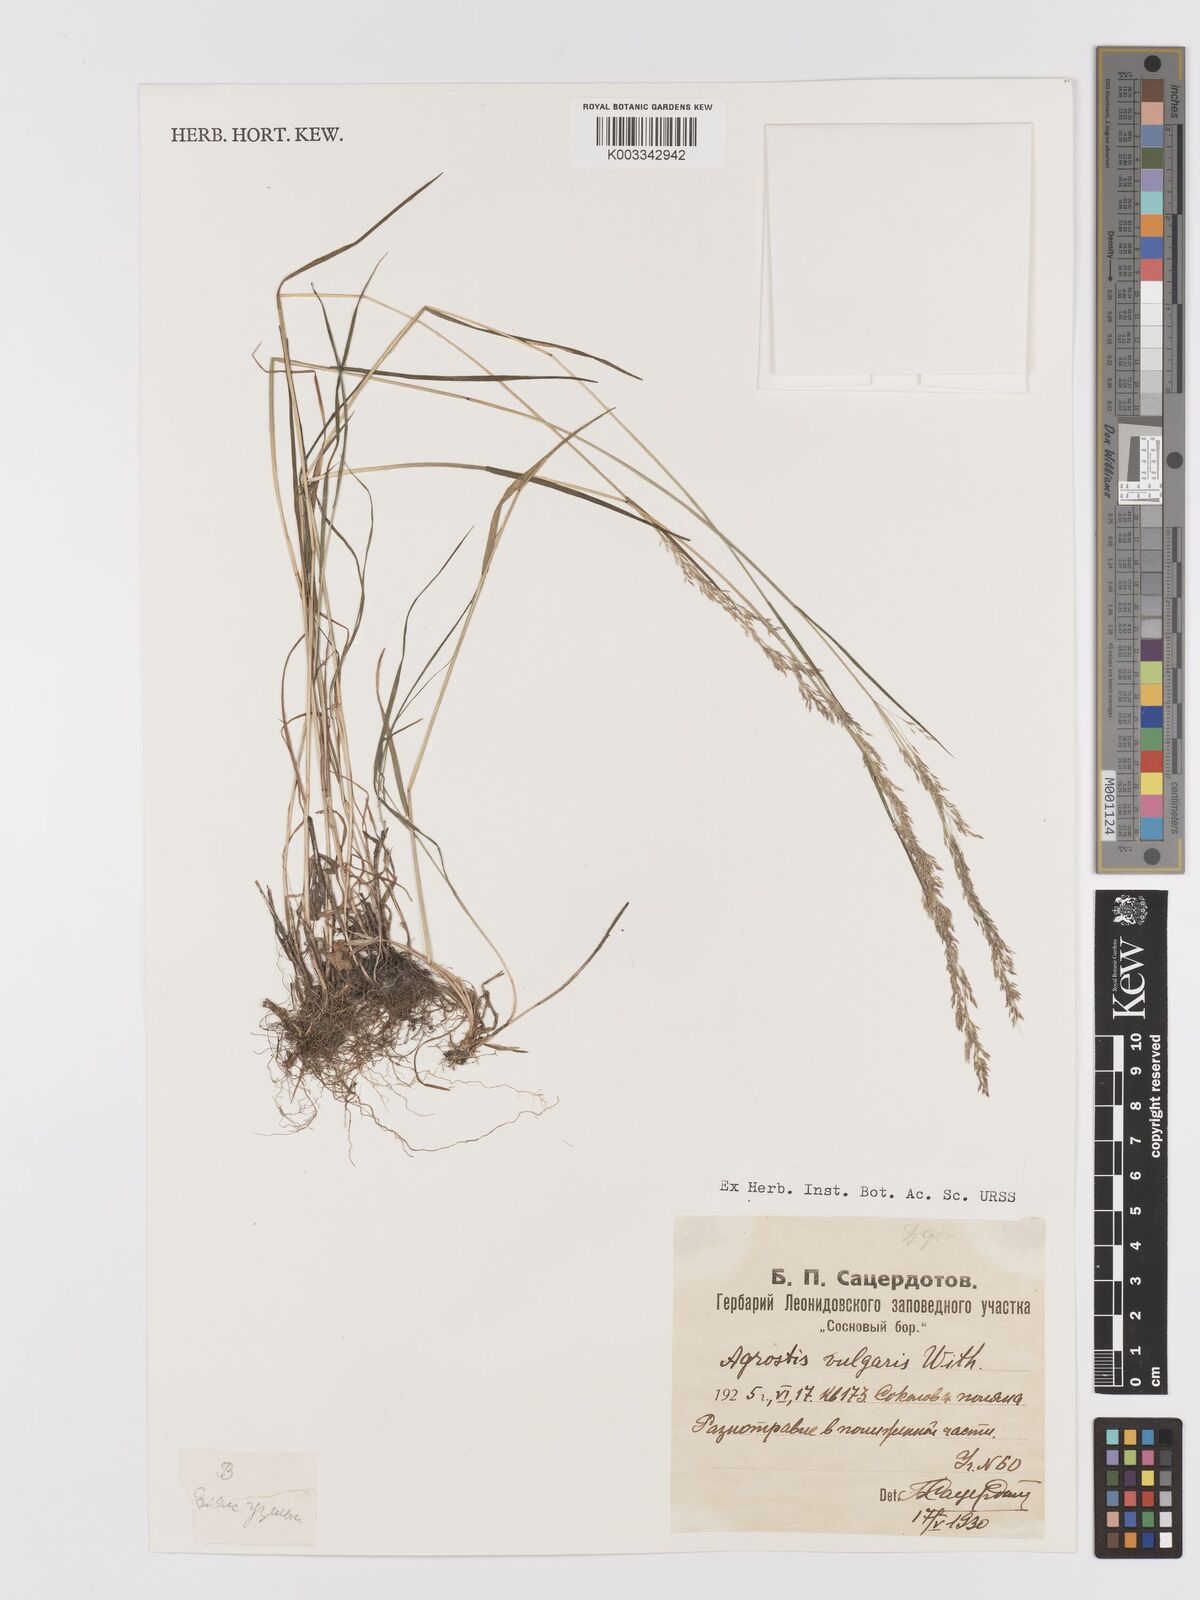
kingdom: Plantae
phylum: Tracheophyta
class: Liliopsida
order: Poales
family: Poaceae
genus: Agrostis
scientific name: Agrostis capillaris
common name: Colonial bentgrass
